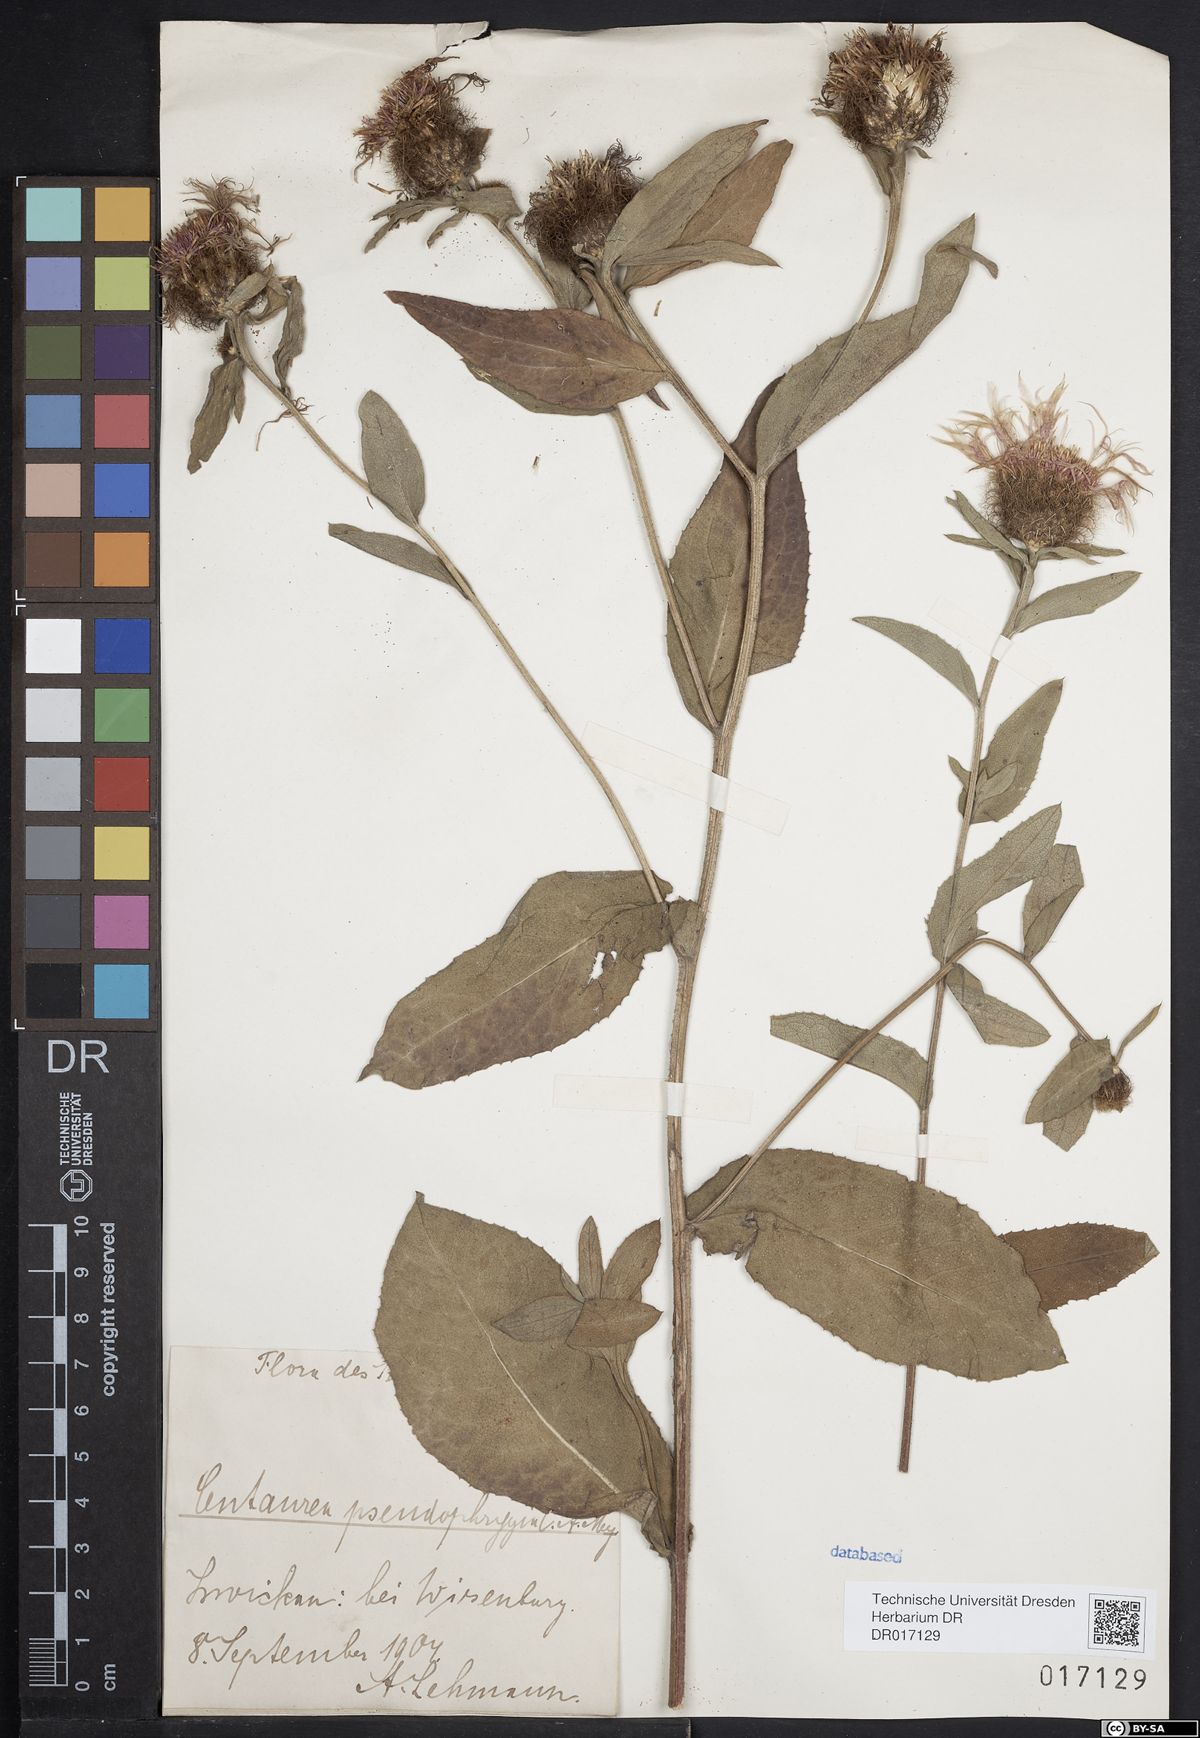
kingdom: Plantae
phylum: Tracheophyta
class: Magnoliopsida
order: Asterales
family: Asteraceae
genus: Centaurea
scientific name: Centaurea pseudophrygia
